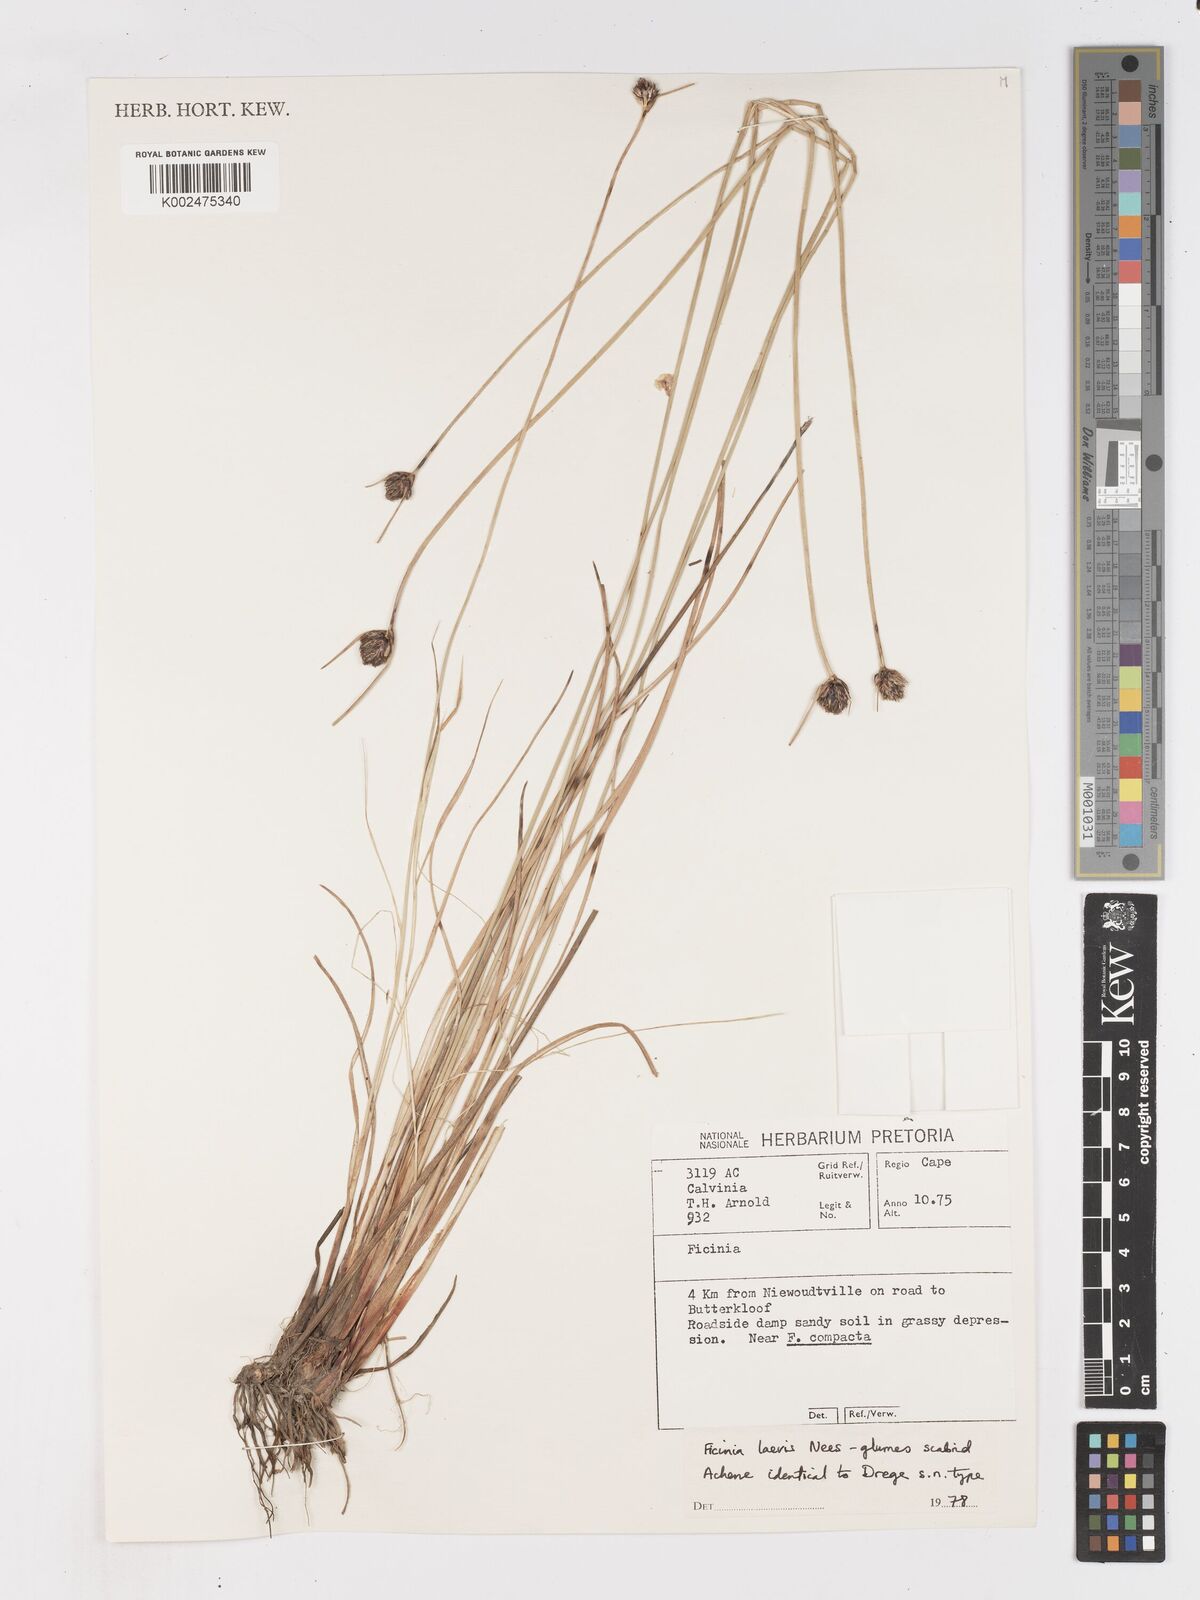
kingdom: Plantae
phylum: Tracheophyta
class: Liliopsida
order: Poales
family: Cyperaceae
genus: Ficinia
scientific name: Ficinia laevis
